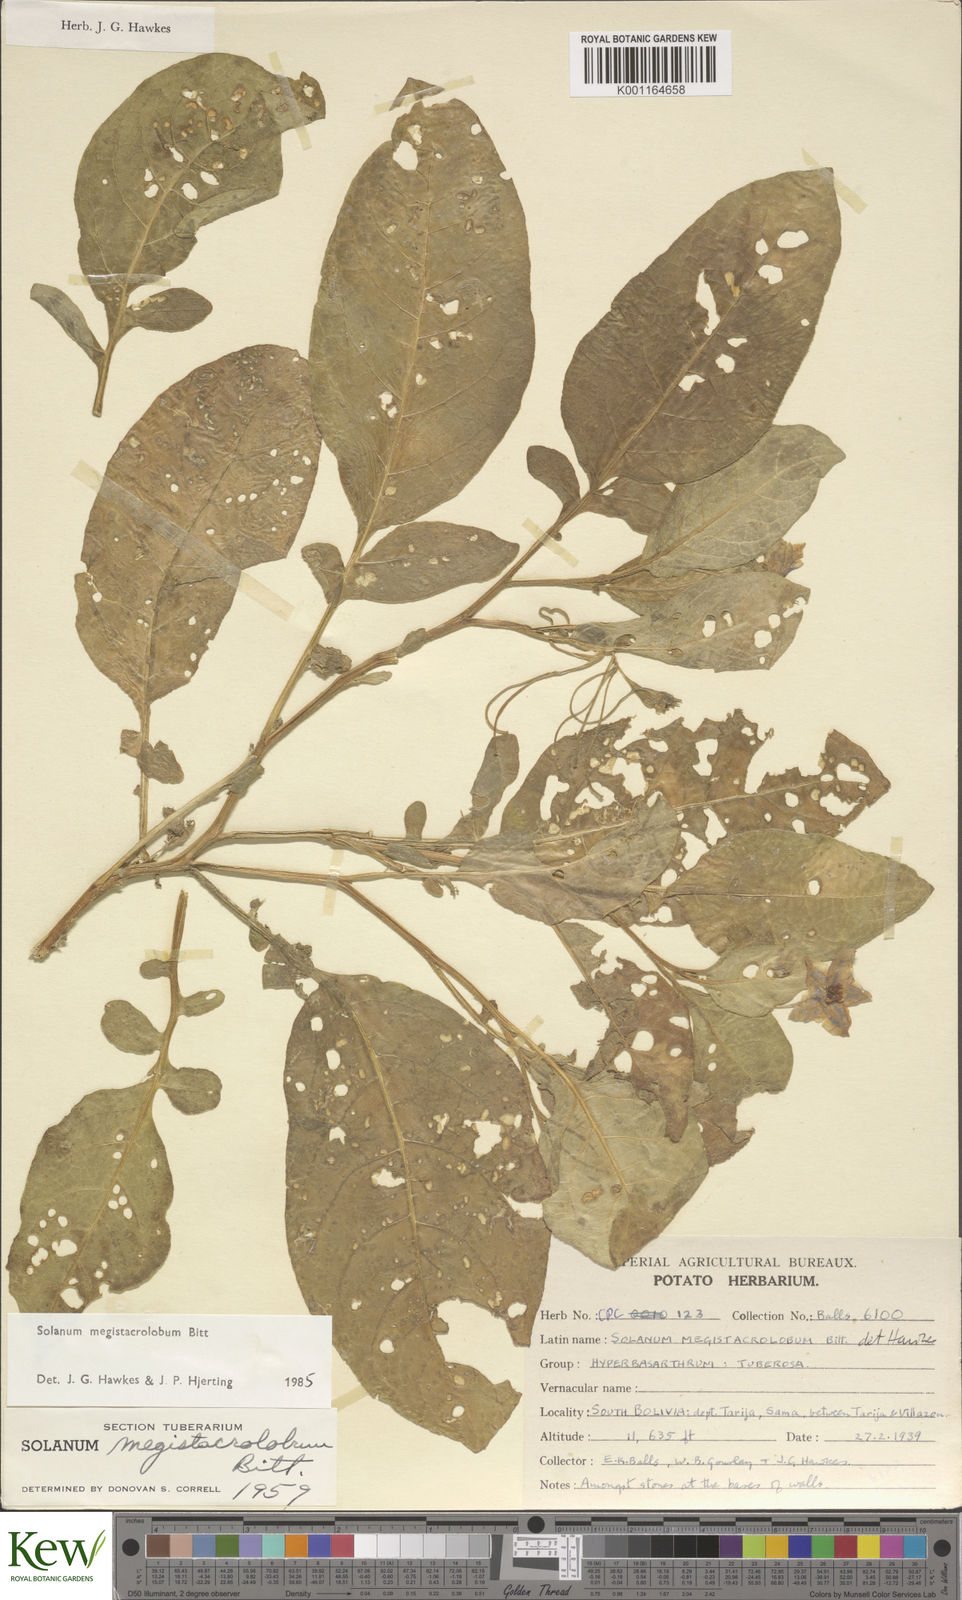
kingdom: Plantae
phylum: Tracheophyta
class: Magnoliopsida
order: Solanales
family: Solanaceae
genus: Solanum
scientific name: Solanum boliviense
